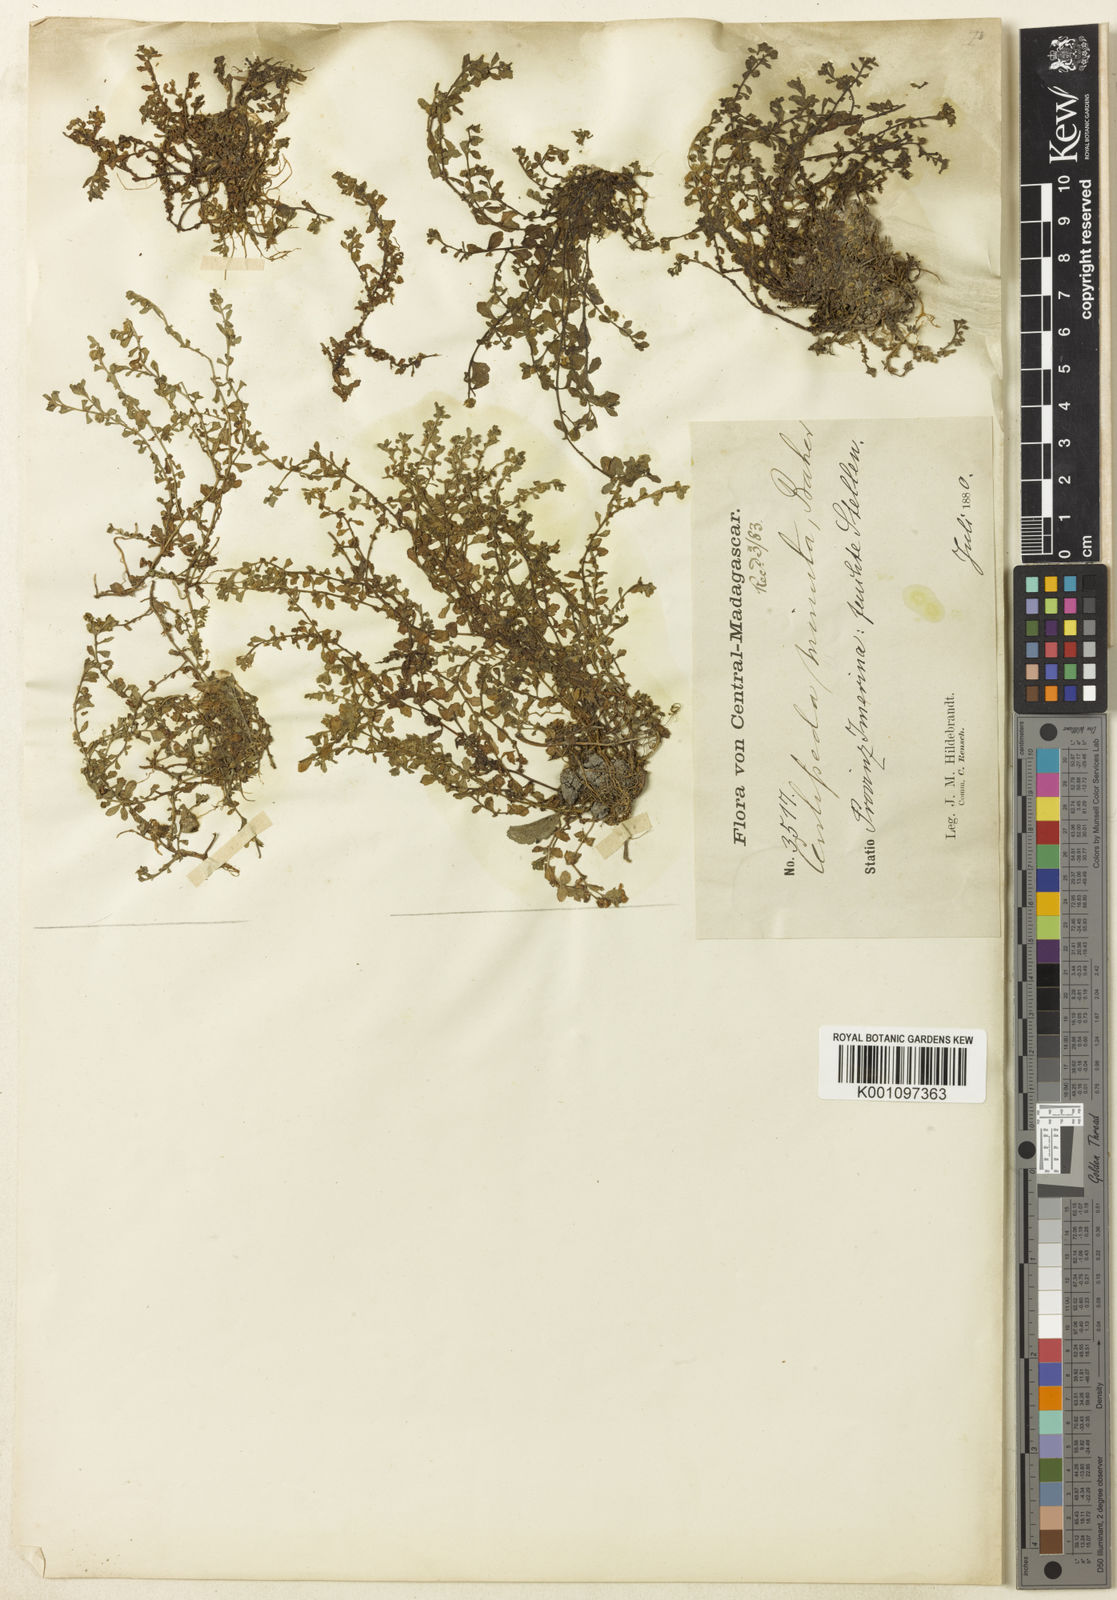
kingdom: Plantae
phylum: Tracheophyta
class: Magnoliopsida
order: Asterales
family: Asteraceae
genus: Centipeda
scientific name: Centipeda minima
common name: Spreading sneezeweed
